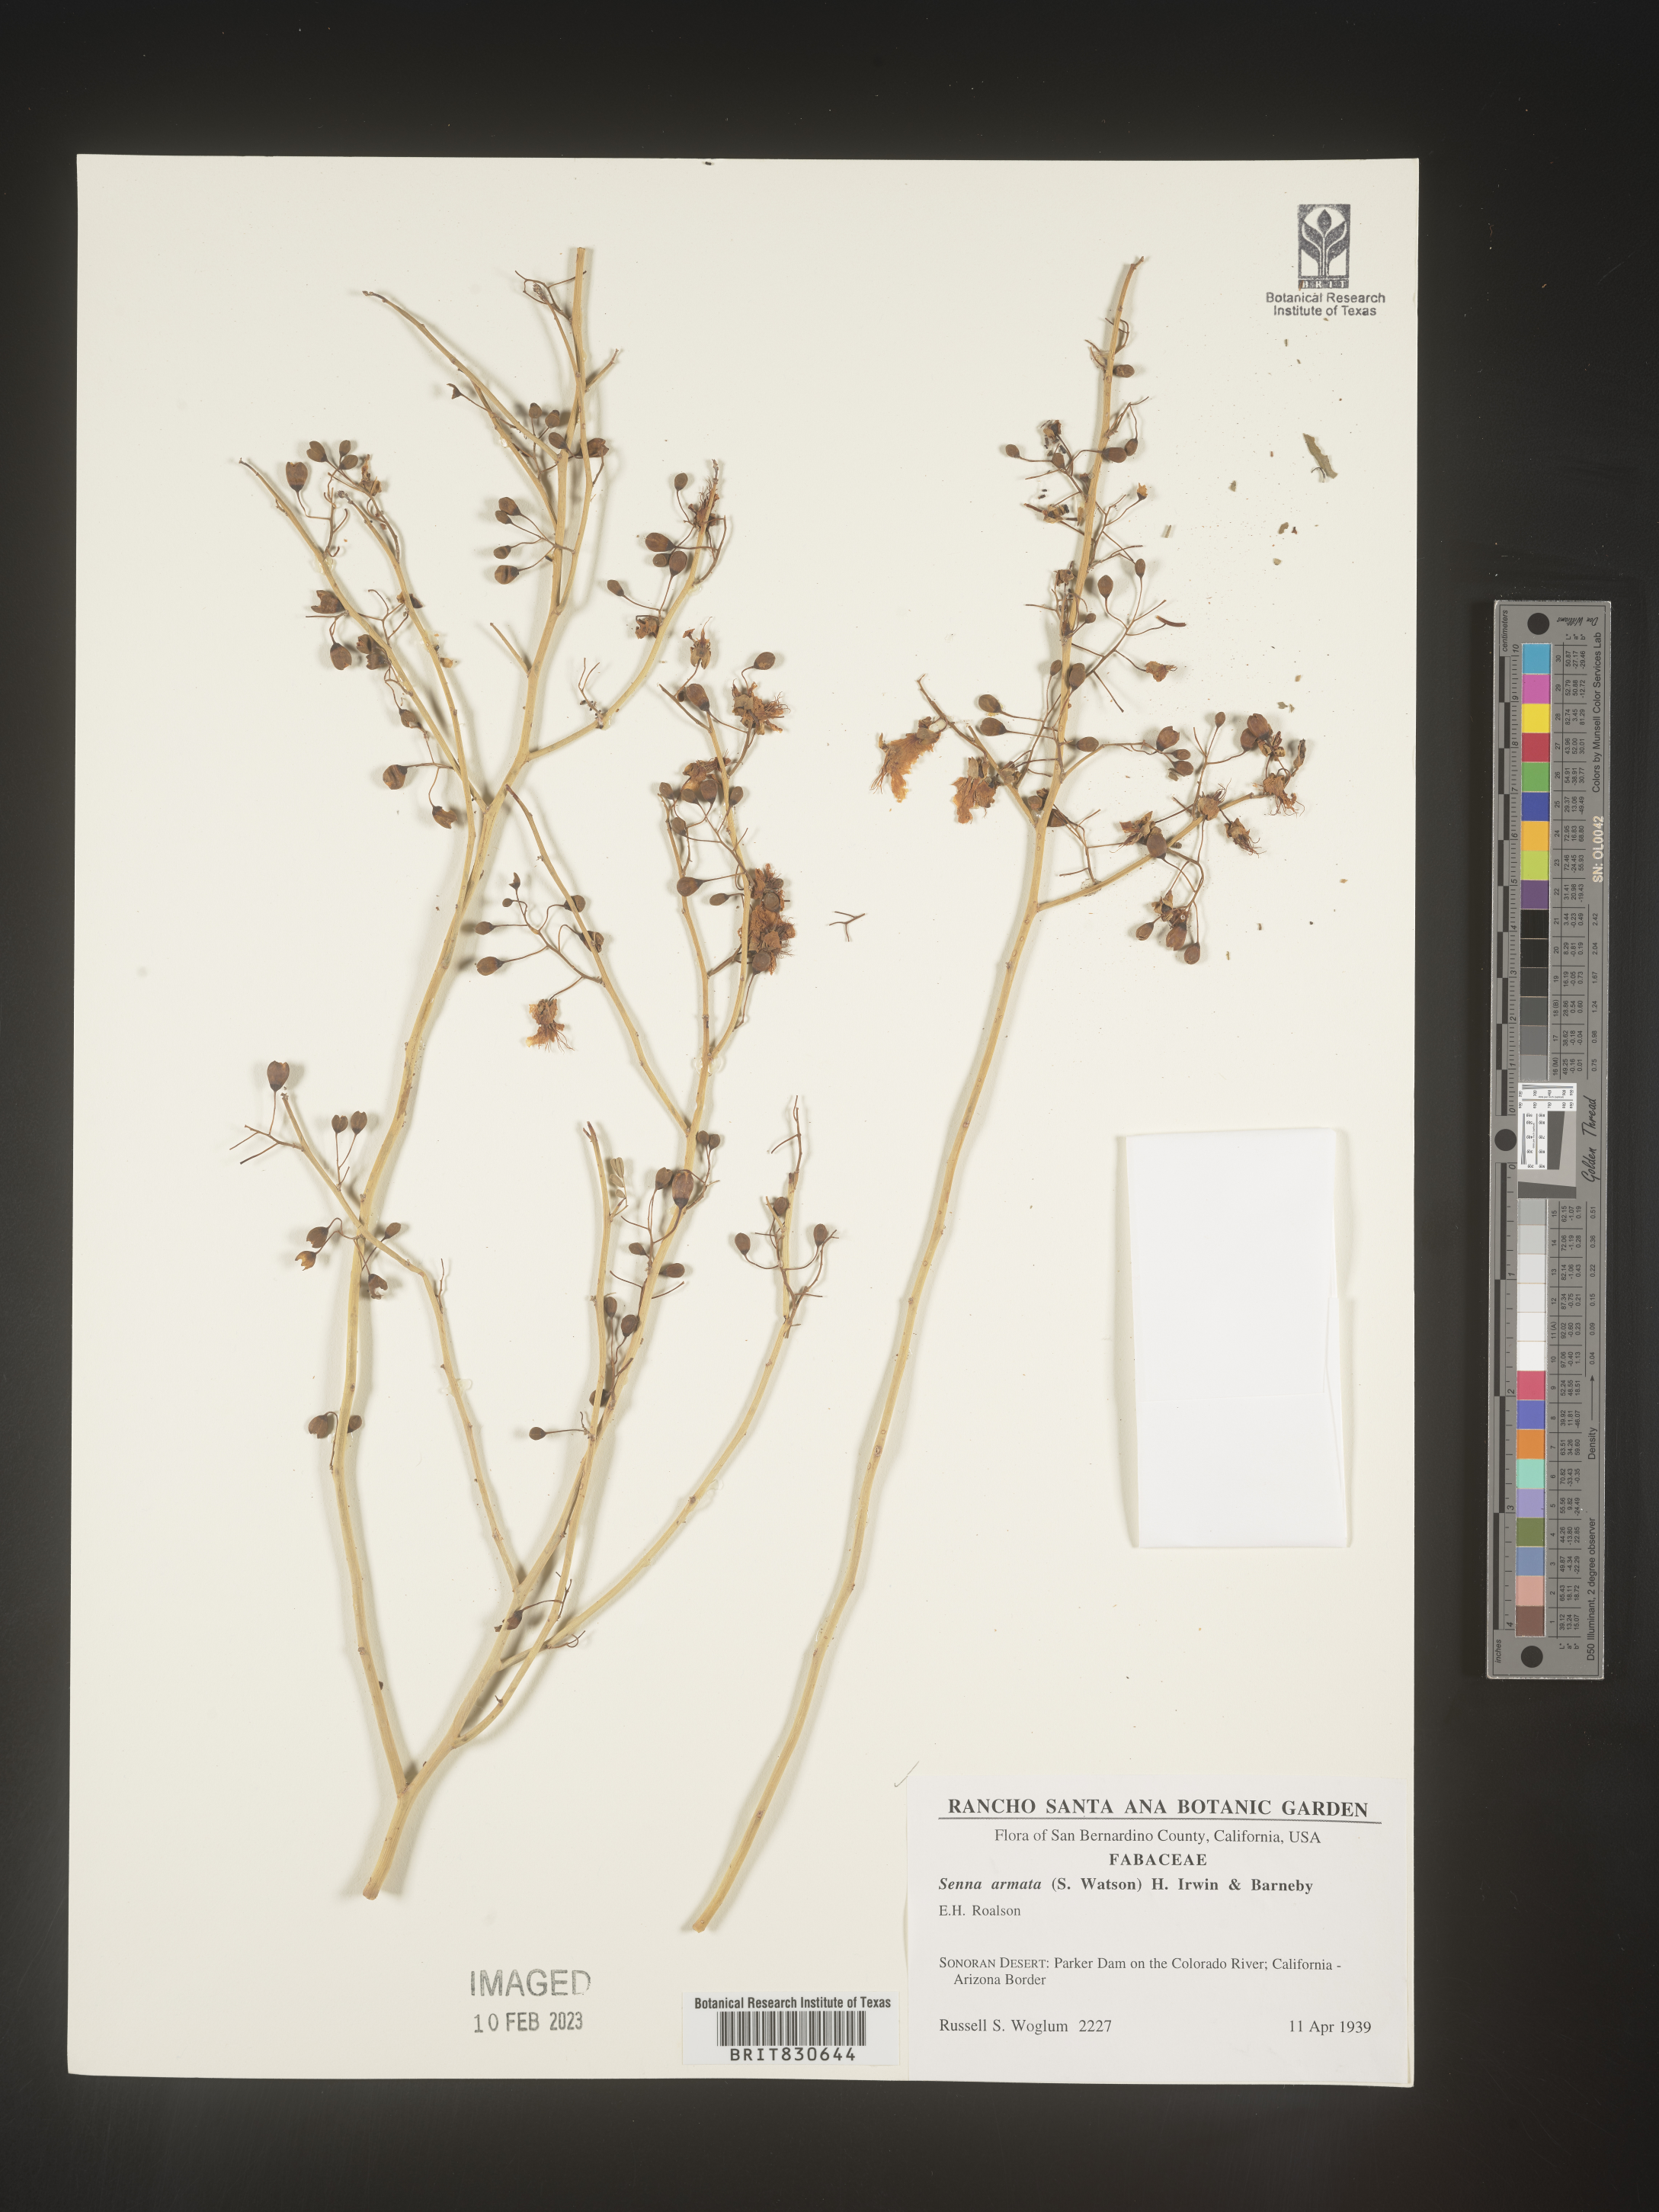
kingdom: Plantae
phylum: Tracheophyta
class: Magnoliopsida
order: Fabales
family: Fabaceae
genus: Senna
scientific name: Senna
